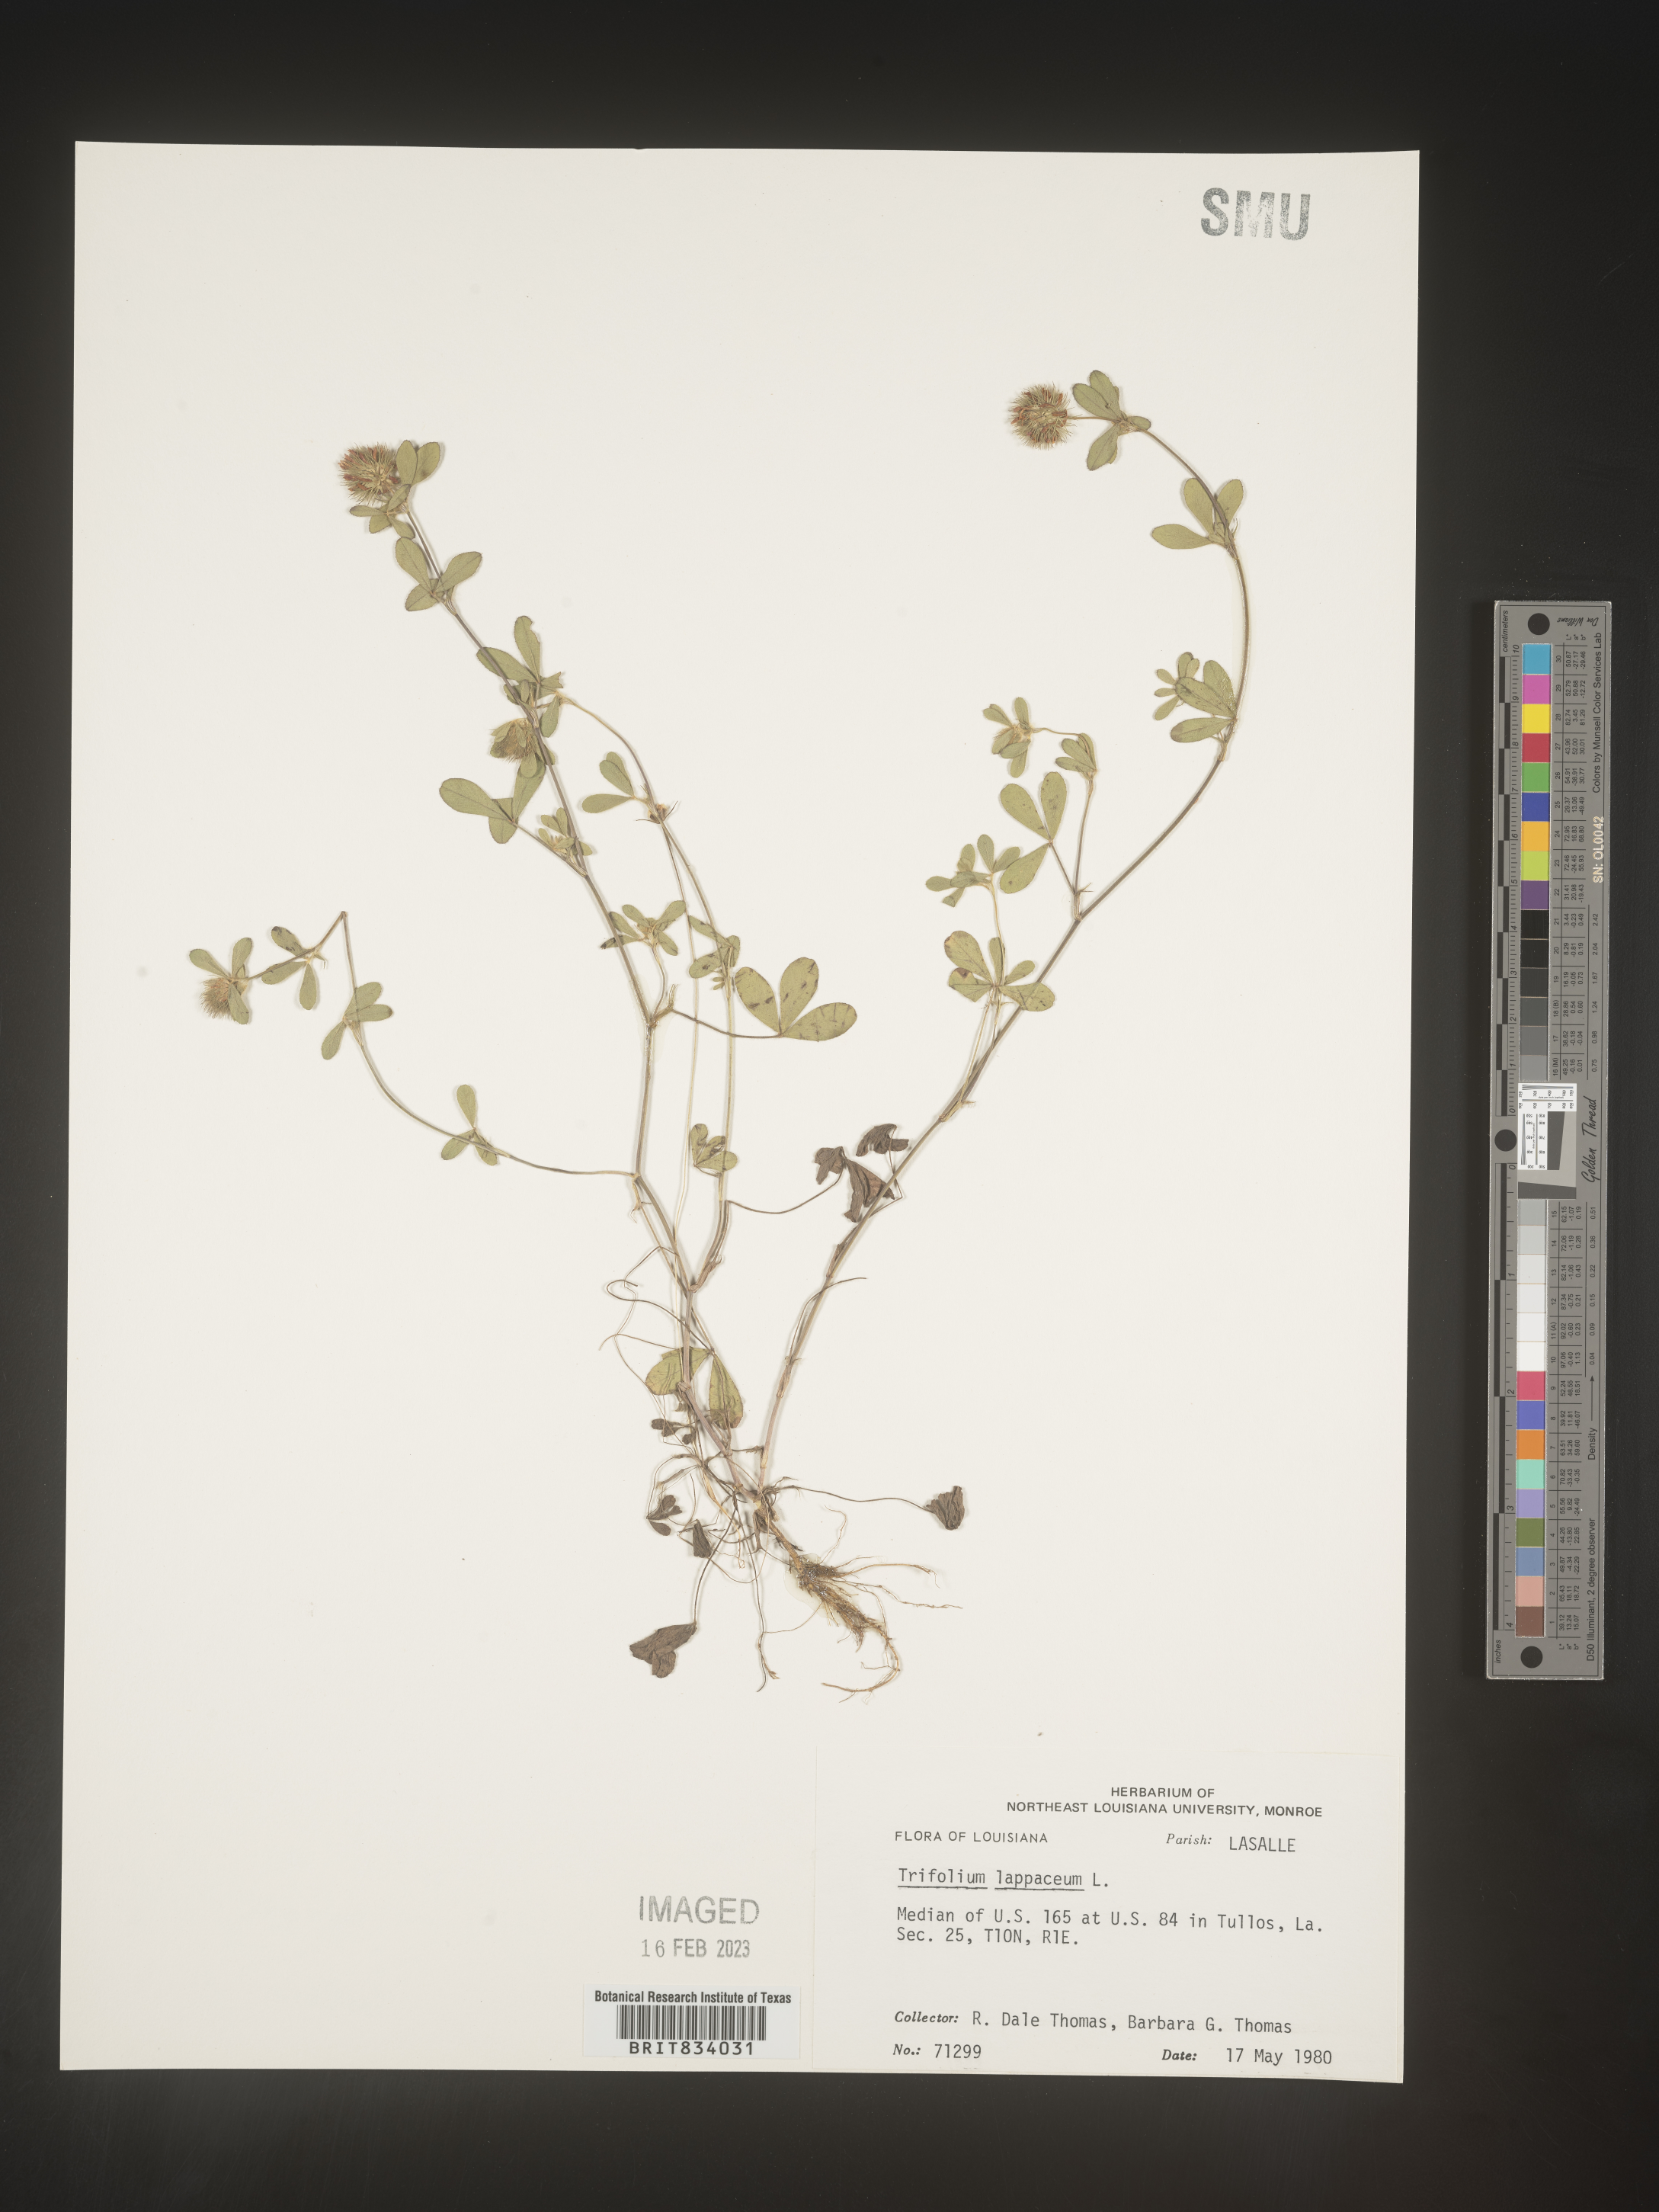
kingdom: Plantae
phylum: Tracheophyta
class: Magnoliopsida
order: Fabales
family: Fabaceae
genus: Trifolium
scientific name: Trifolium
